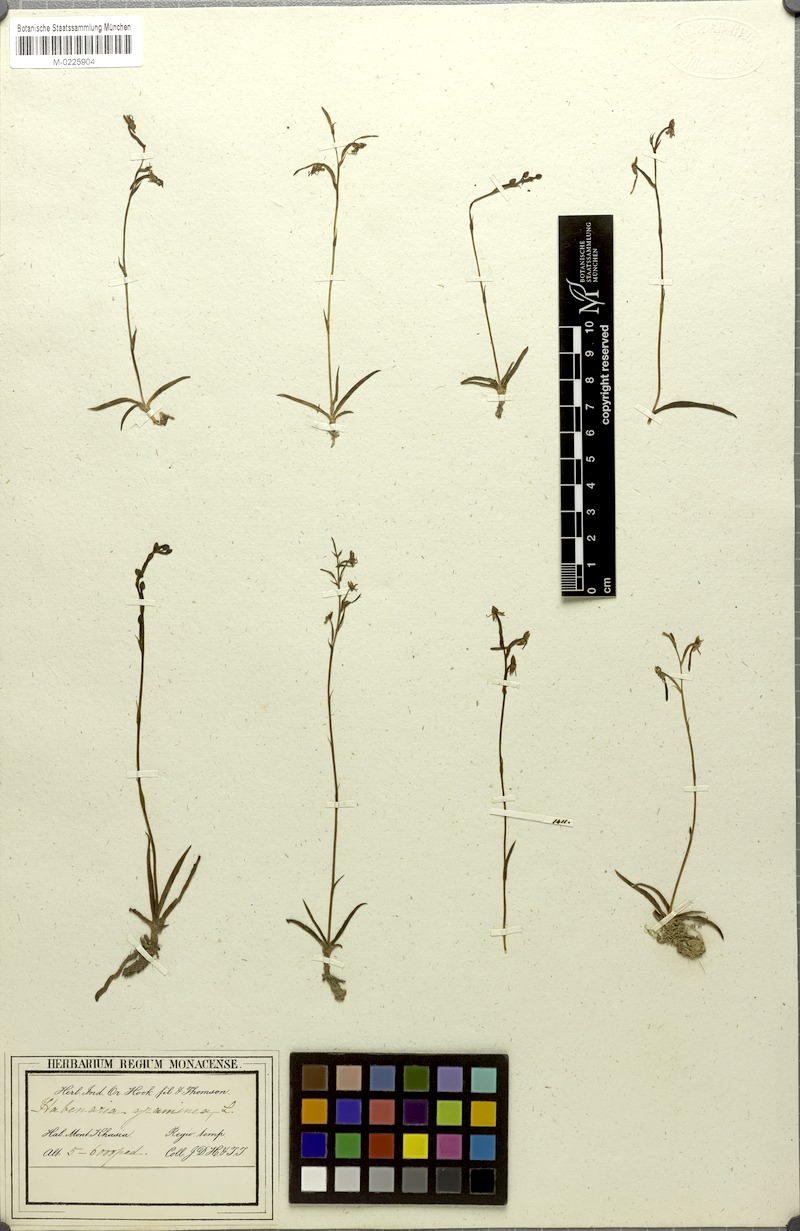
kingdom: Plantae
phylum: Tracheophyta
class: Liliopsida
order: Asparagales
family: Orchidaceae
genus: Habenaria
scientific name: Habenaria khasiana
